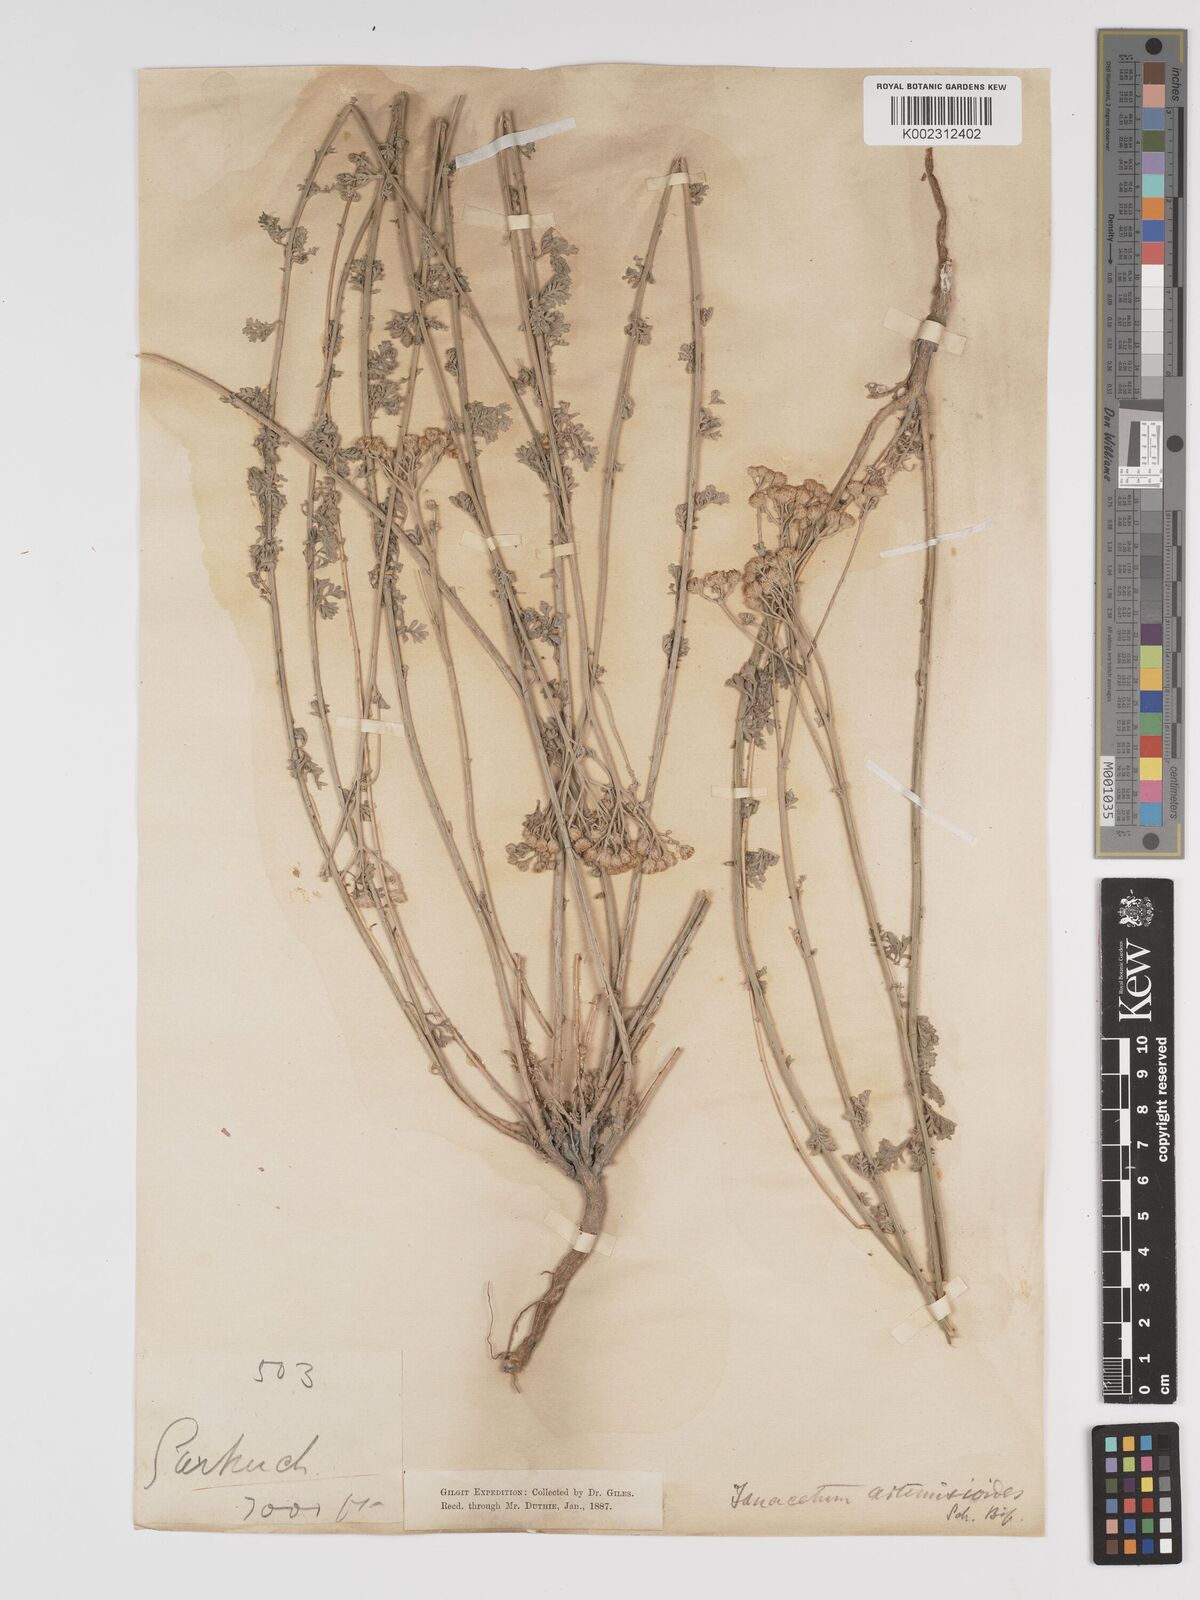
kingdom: Plantae
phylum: Tracheophyta
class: Magnoliopsida
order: Asterales
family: Asteraceae
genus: Tanacetum
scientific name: Tanacetum artemisioides
